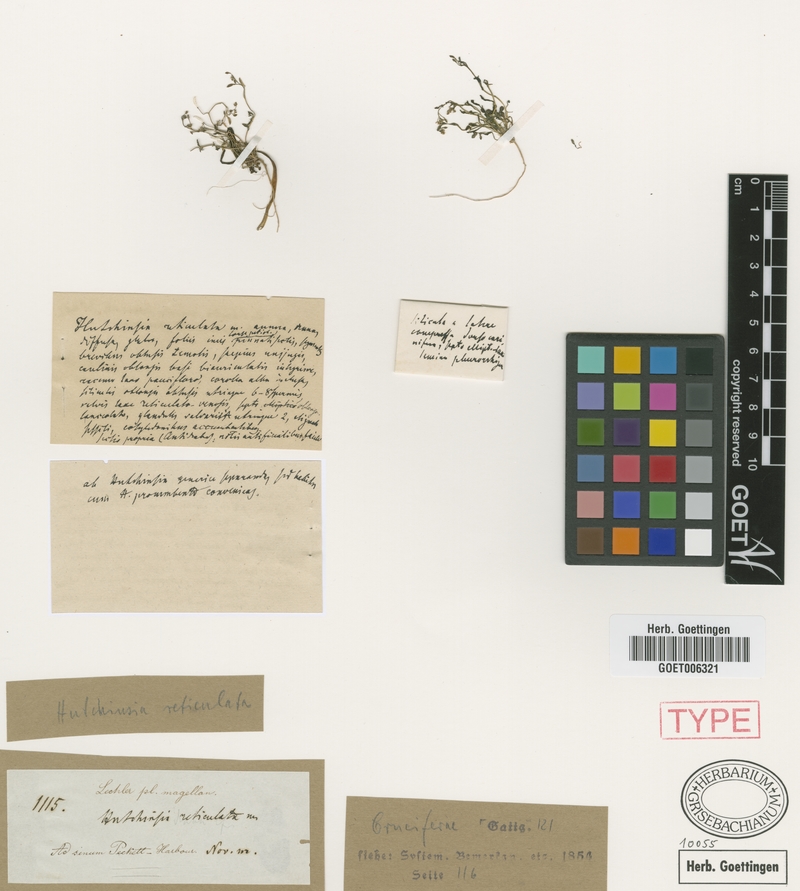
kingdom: Plantae
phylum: Tracheophyta
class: Magnoliopsida
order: Brassicales
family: Brassicaceae
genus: Hornungia
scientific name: Hornungia procumbens
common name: Oval purse
